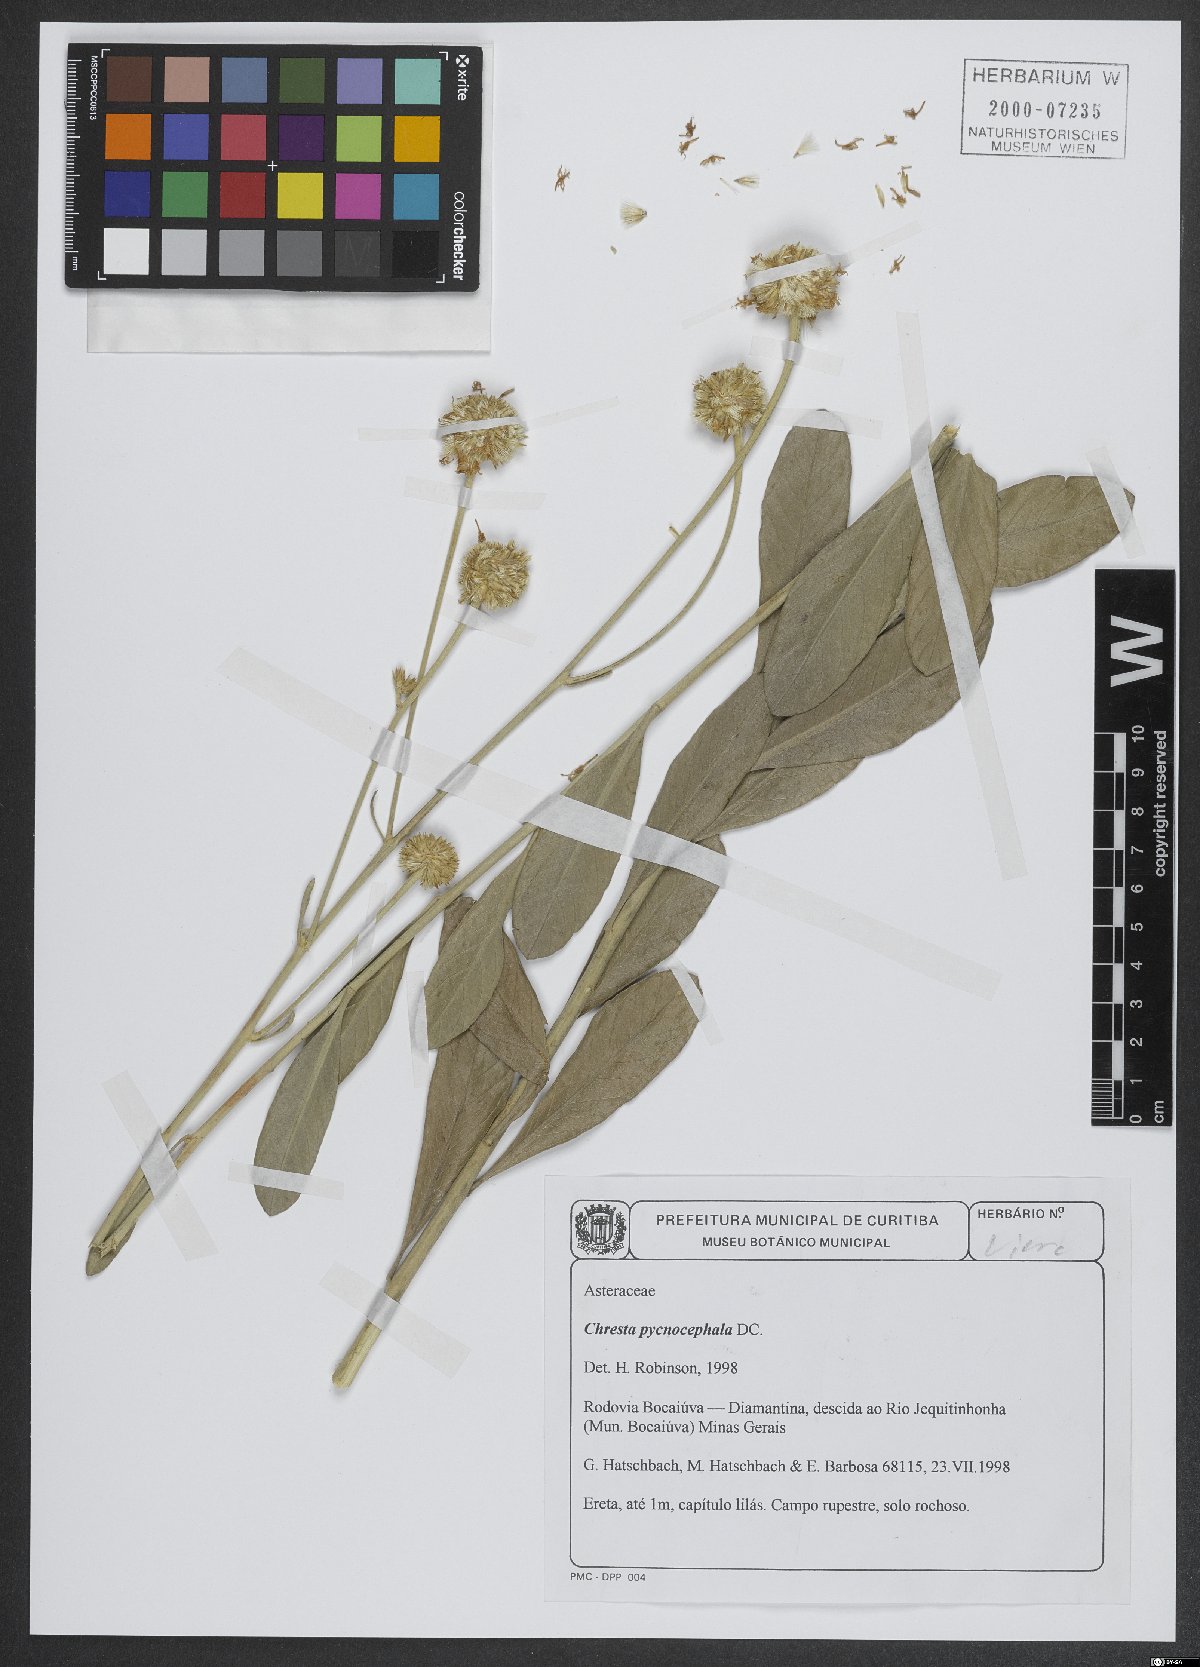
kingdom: Plantae
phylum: Tracheophyta
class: Magnoliopsida
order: Asterales
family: Asteraceae
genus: Chresta
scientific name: Chresta pycnocephala
